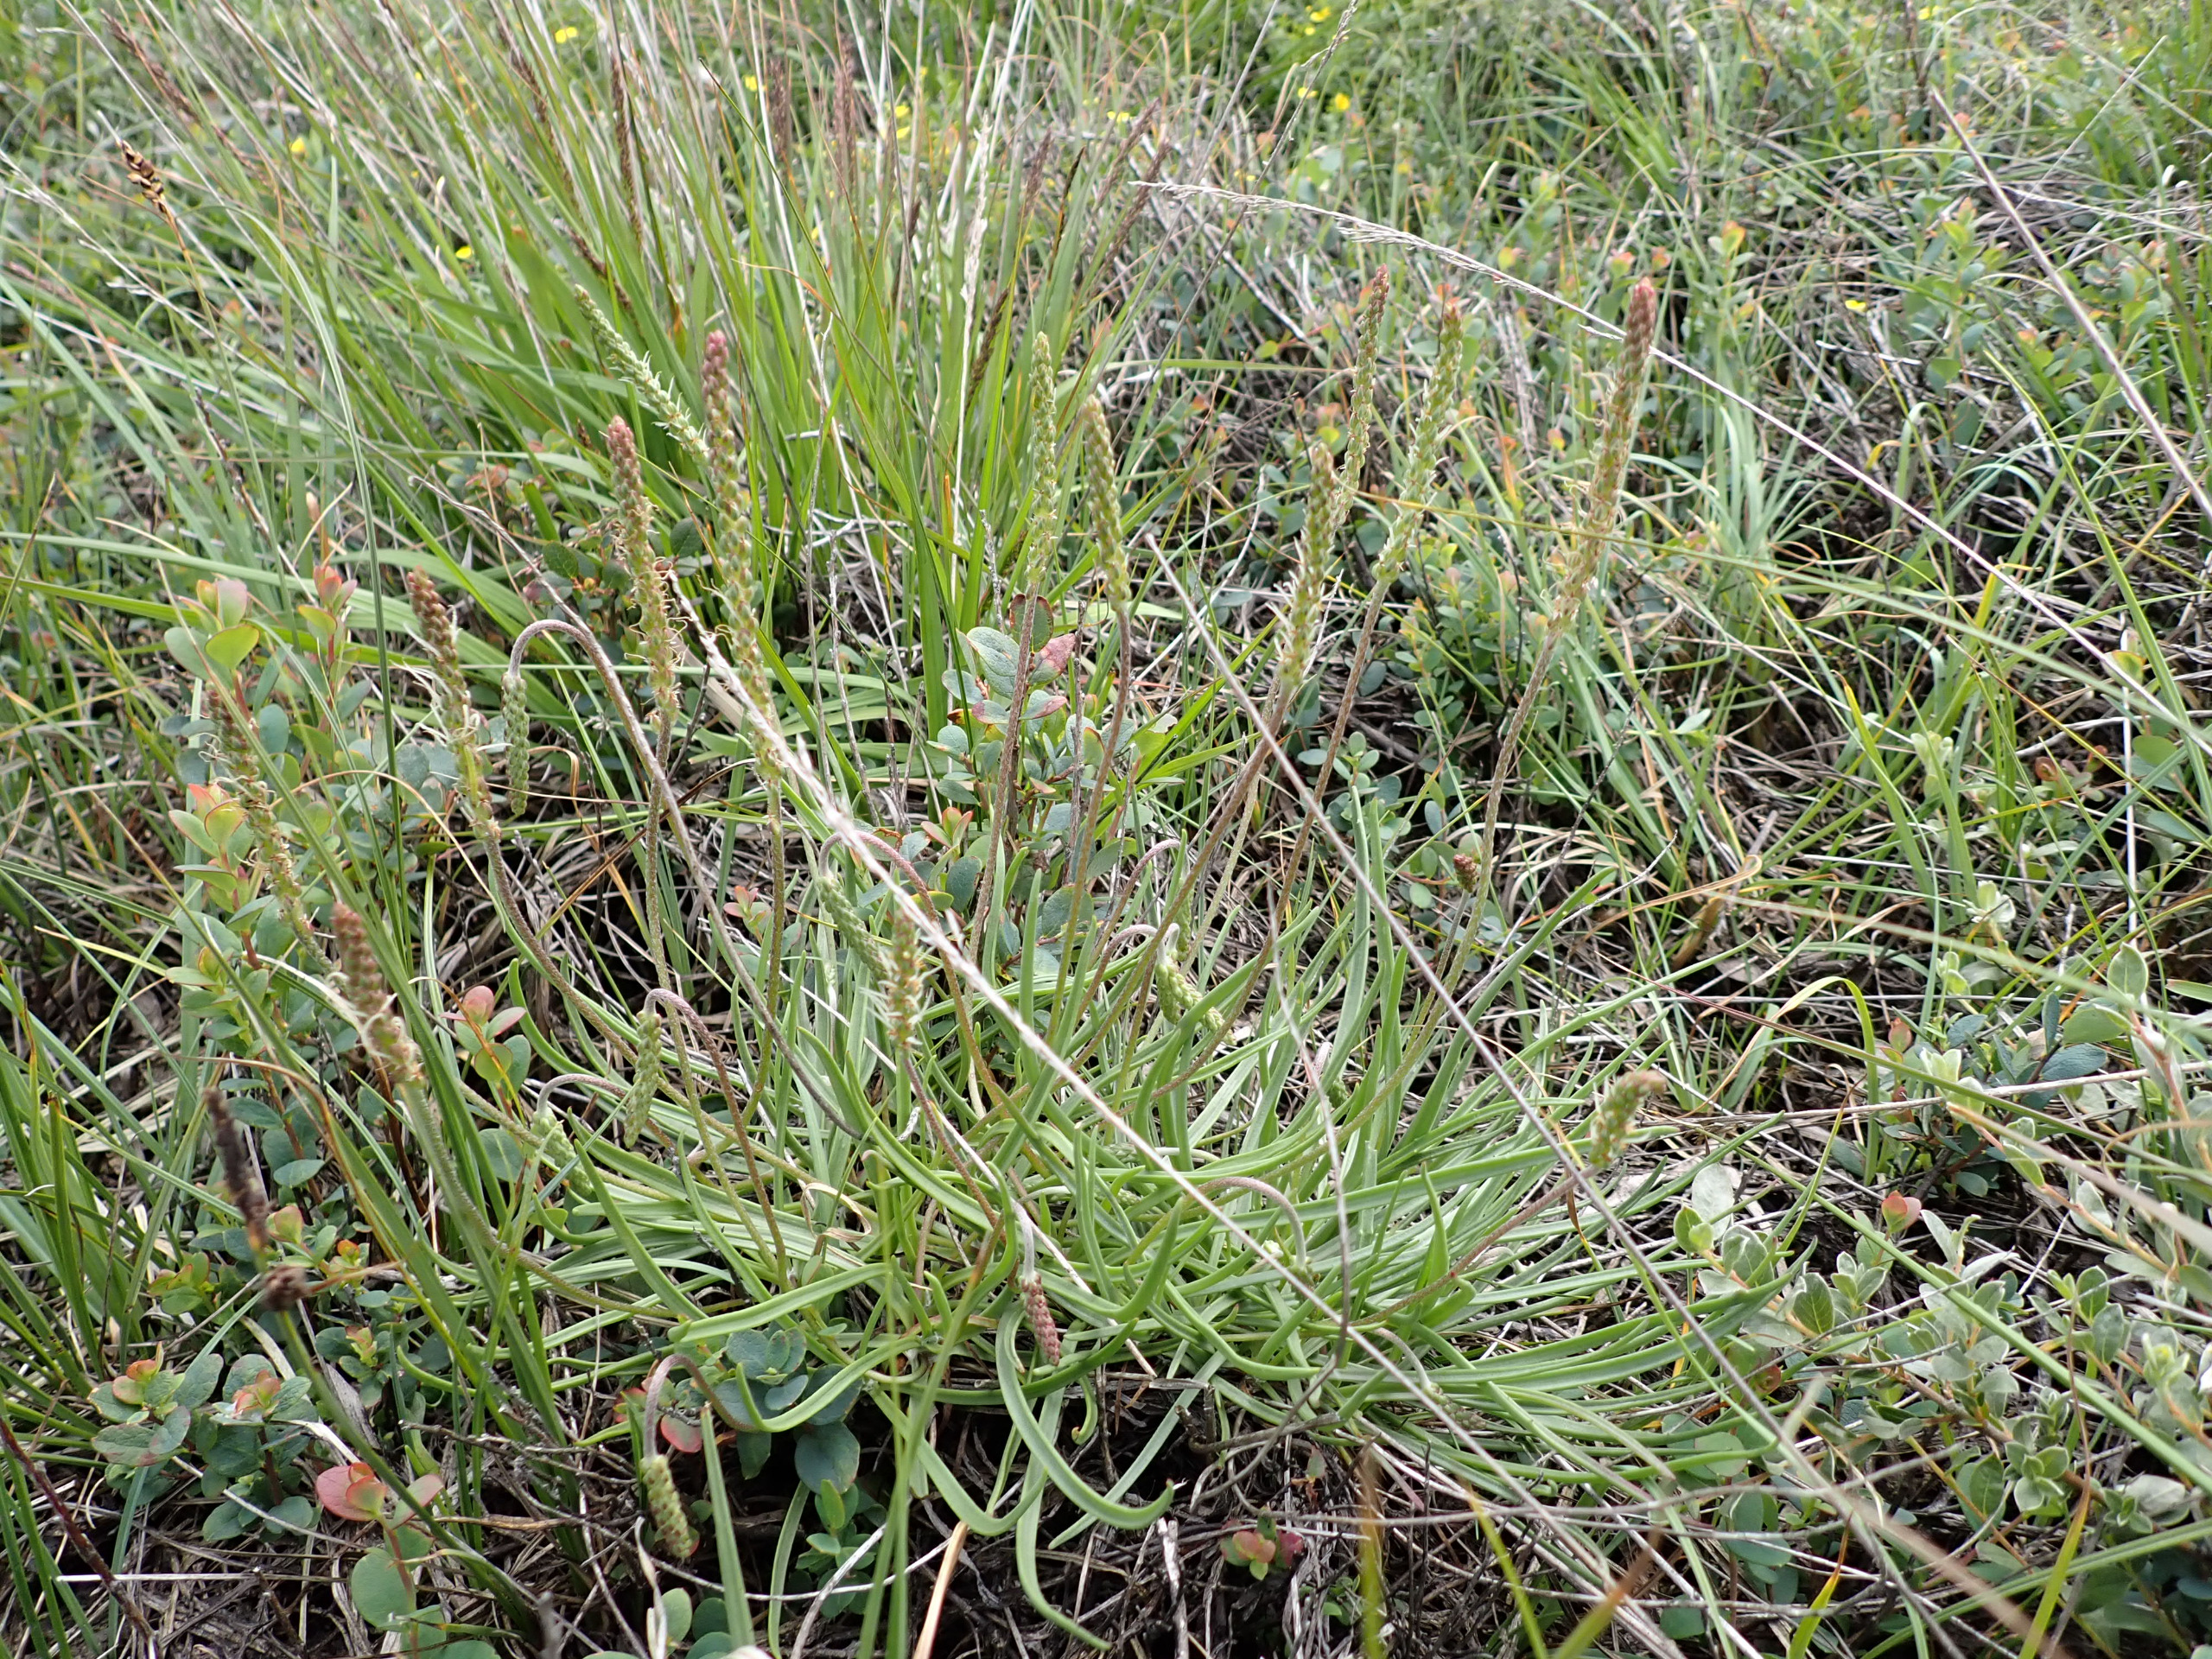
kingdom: Plantae
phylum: Tracheophyta
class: Magnoliopsida
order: Lamiales
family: Plantaginaceae
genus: Plantago
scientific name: Plantago maritima
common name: Strand-vejbred
